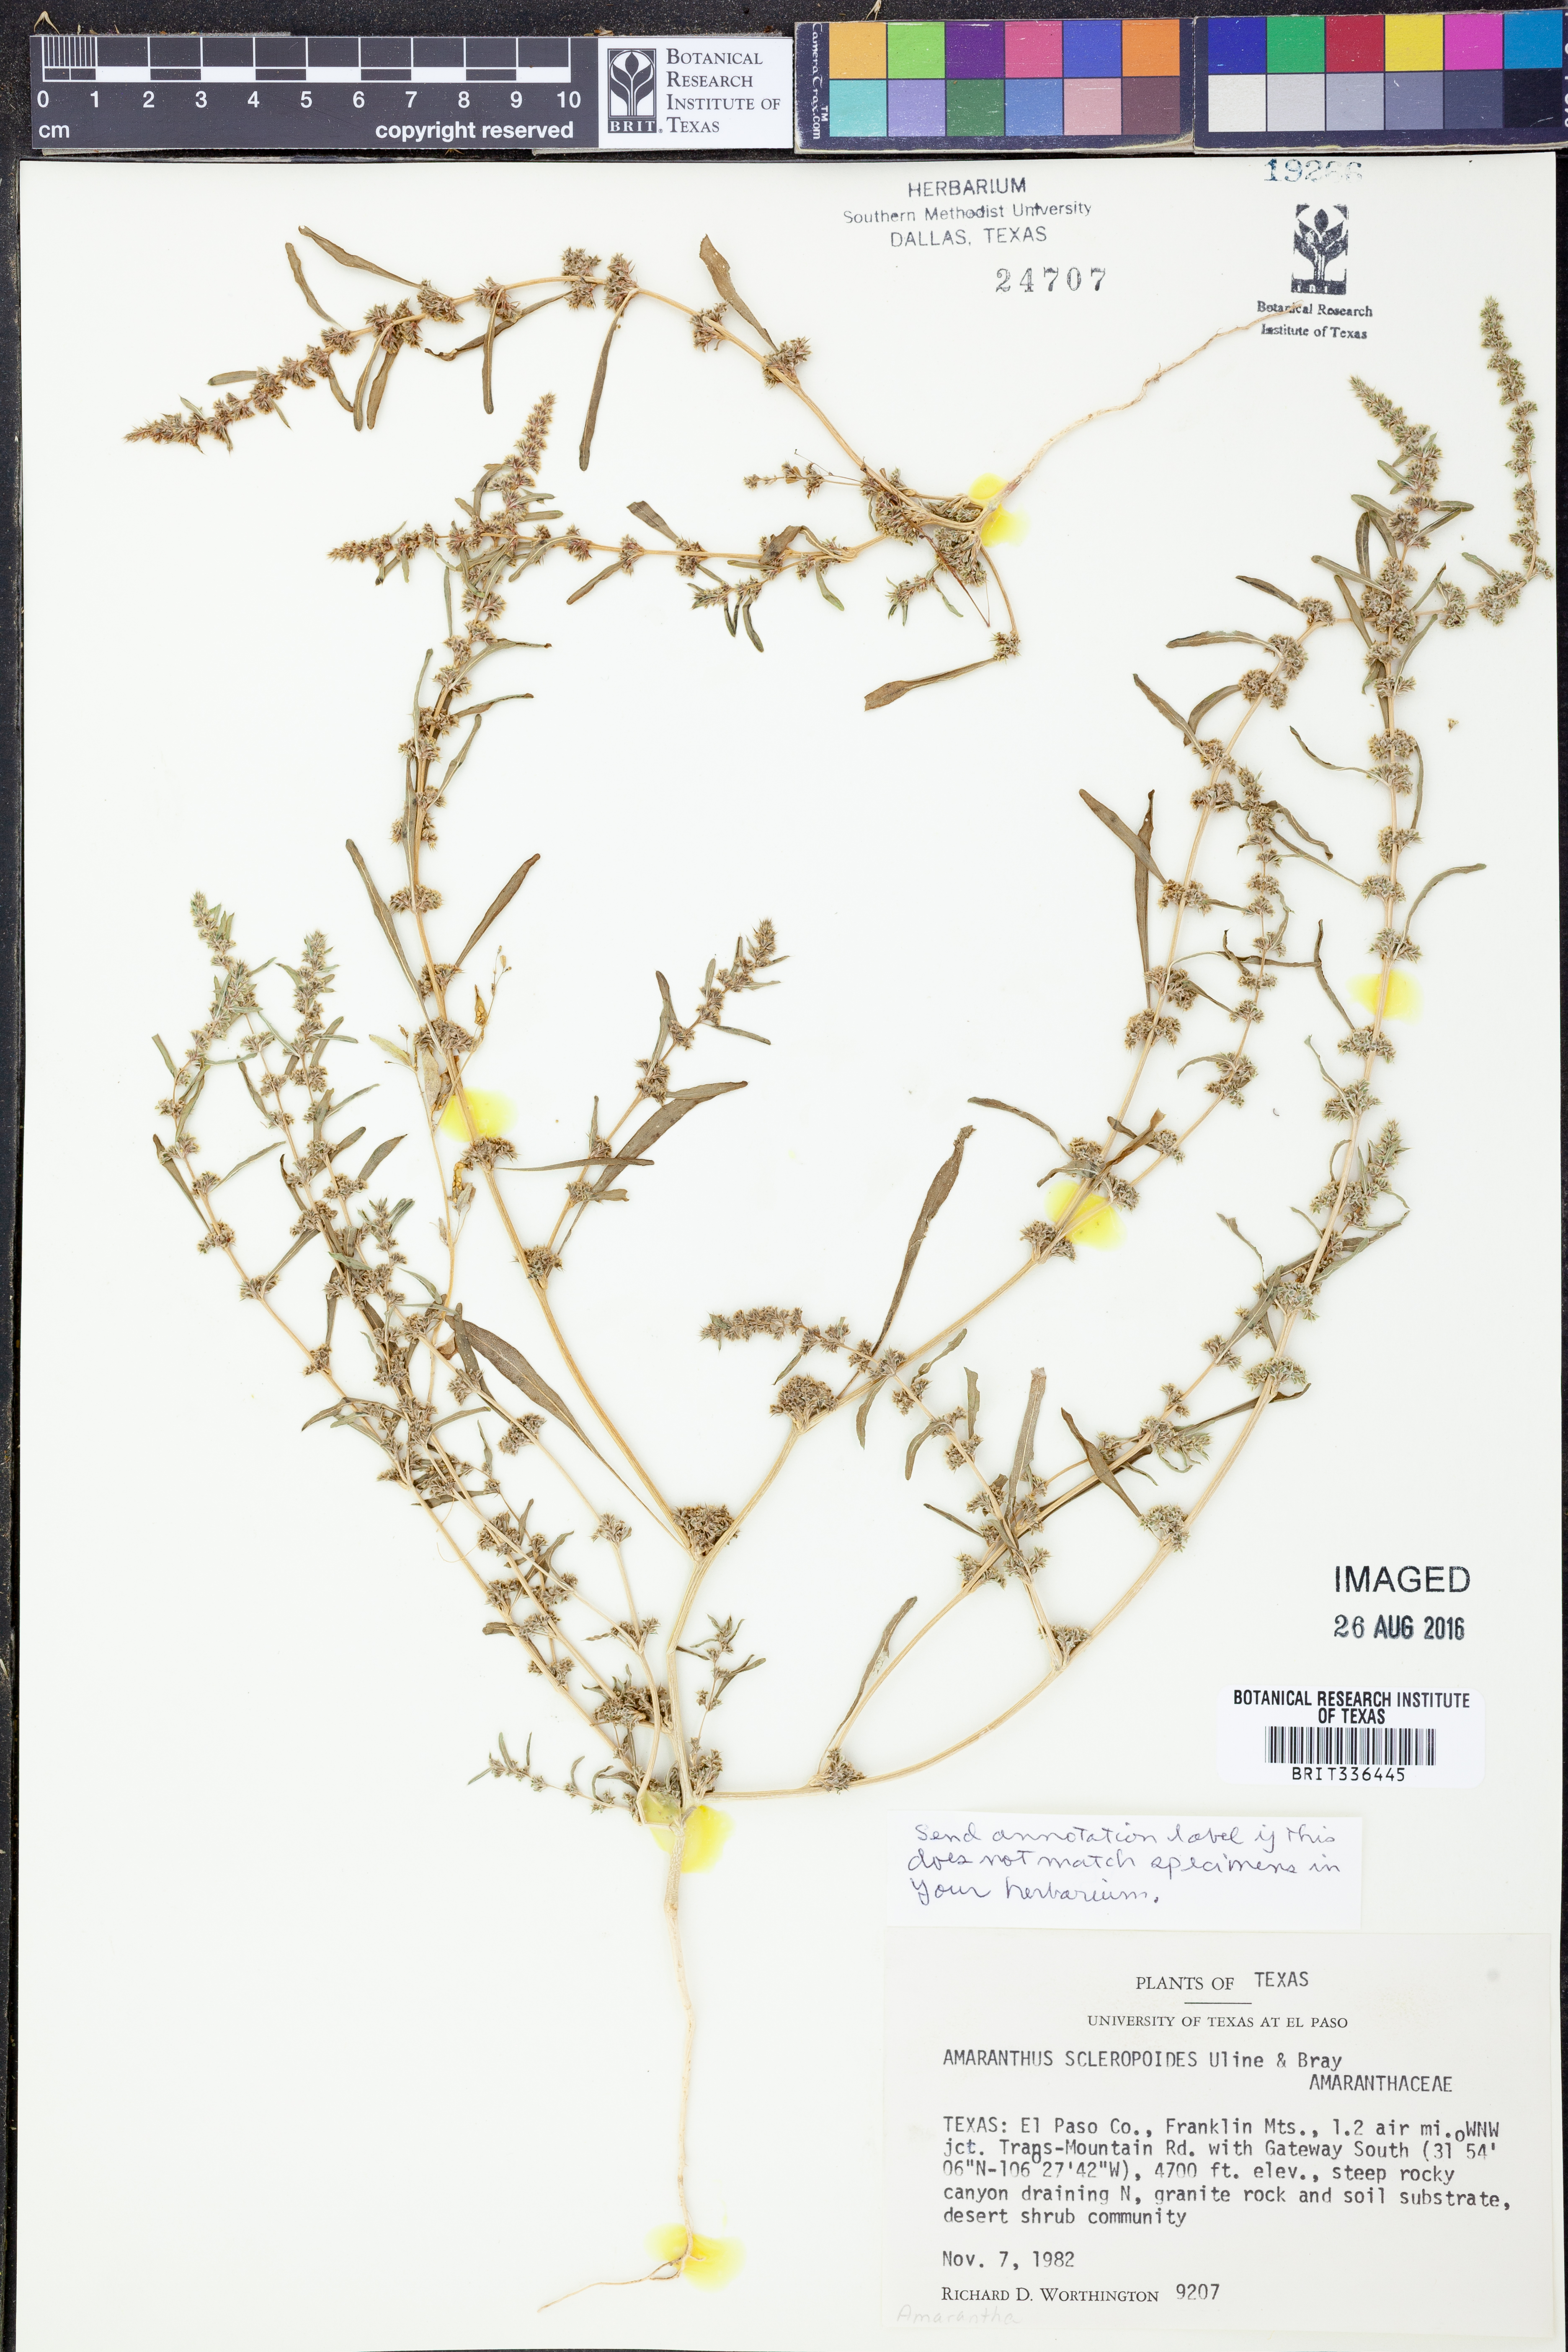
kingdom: Plantae
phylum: Tracheophyta
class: Magnoliopsida
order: Caryophyllales
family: Amaranthaceae
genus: Amaranthus
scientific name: Amaranthus scleropoides
